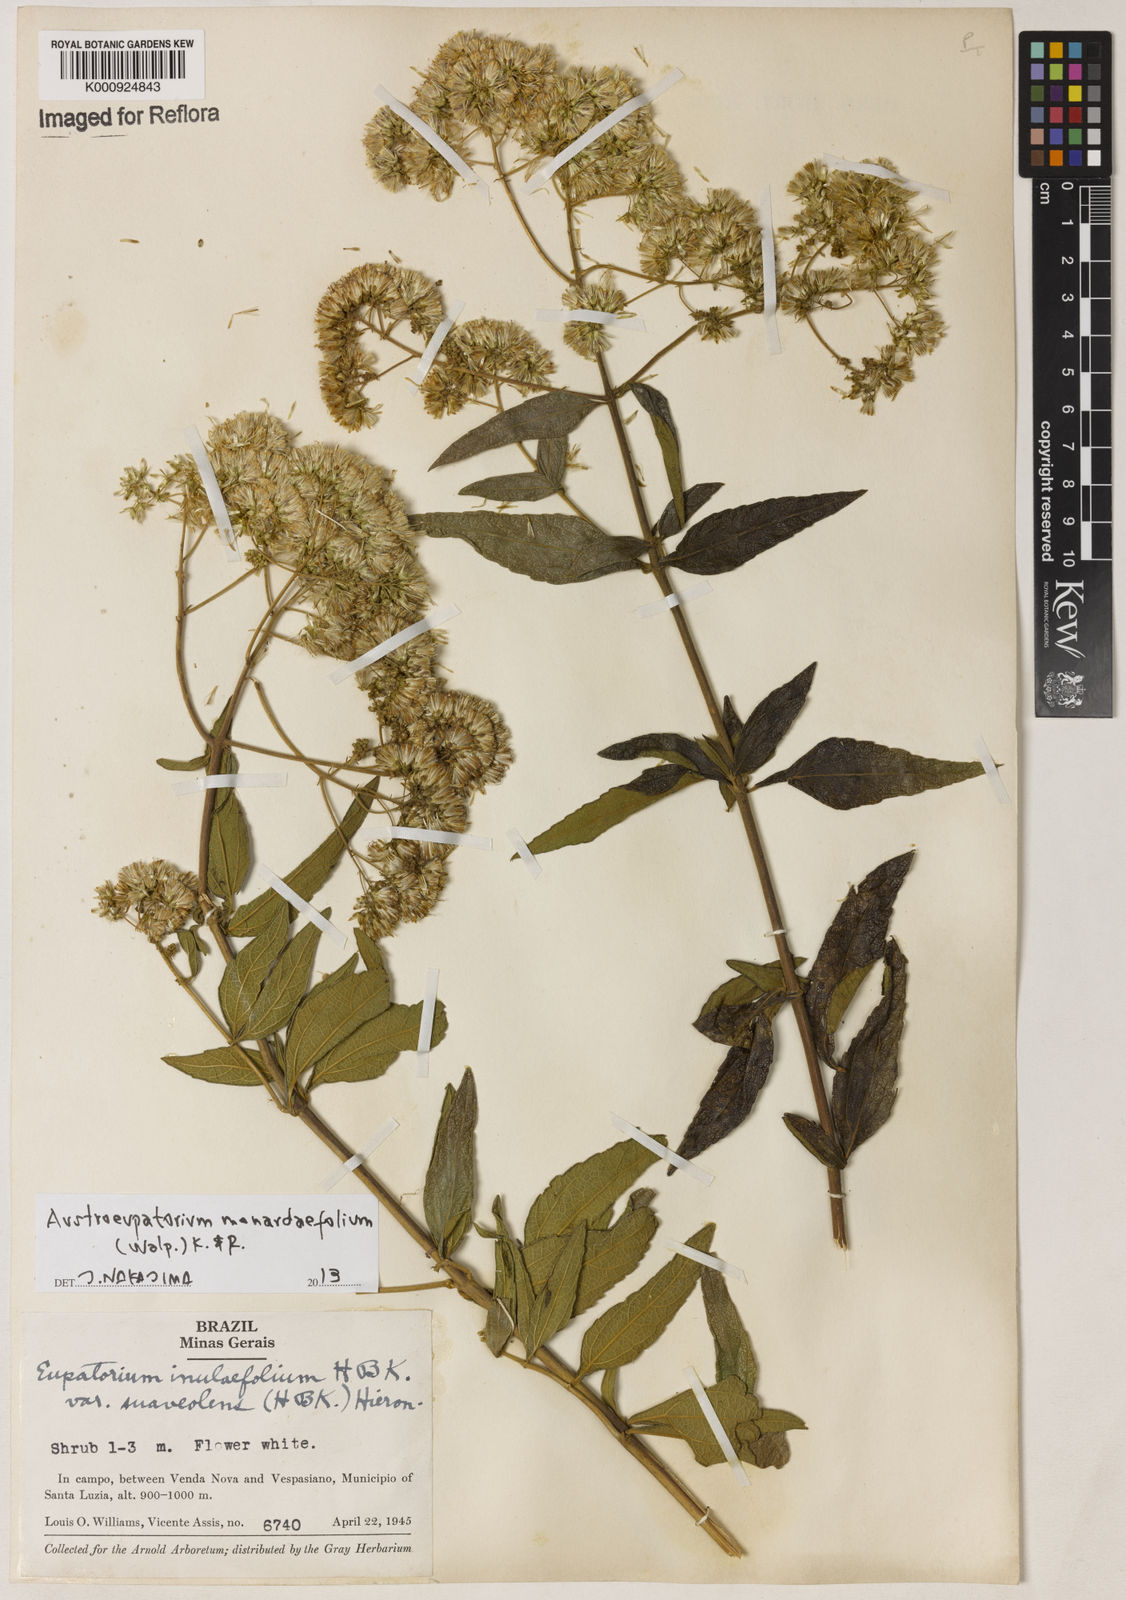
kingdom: Plantae
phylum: Tracheophyta
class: Magnoliopsida
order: Asterales
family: Asteraceae
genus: Austroeupatorium
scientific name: Austroeupatorium
